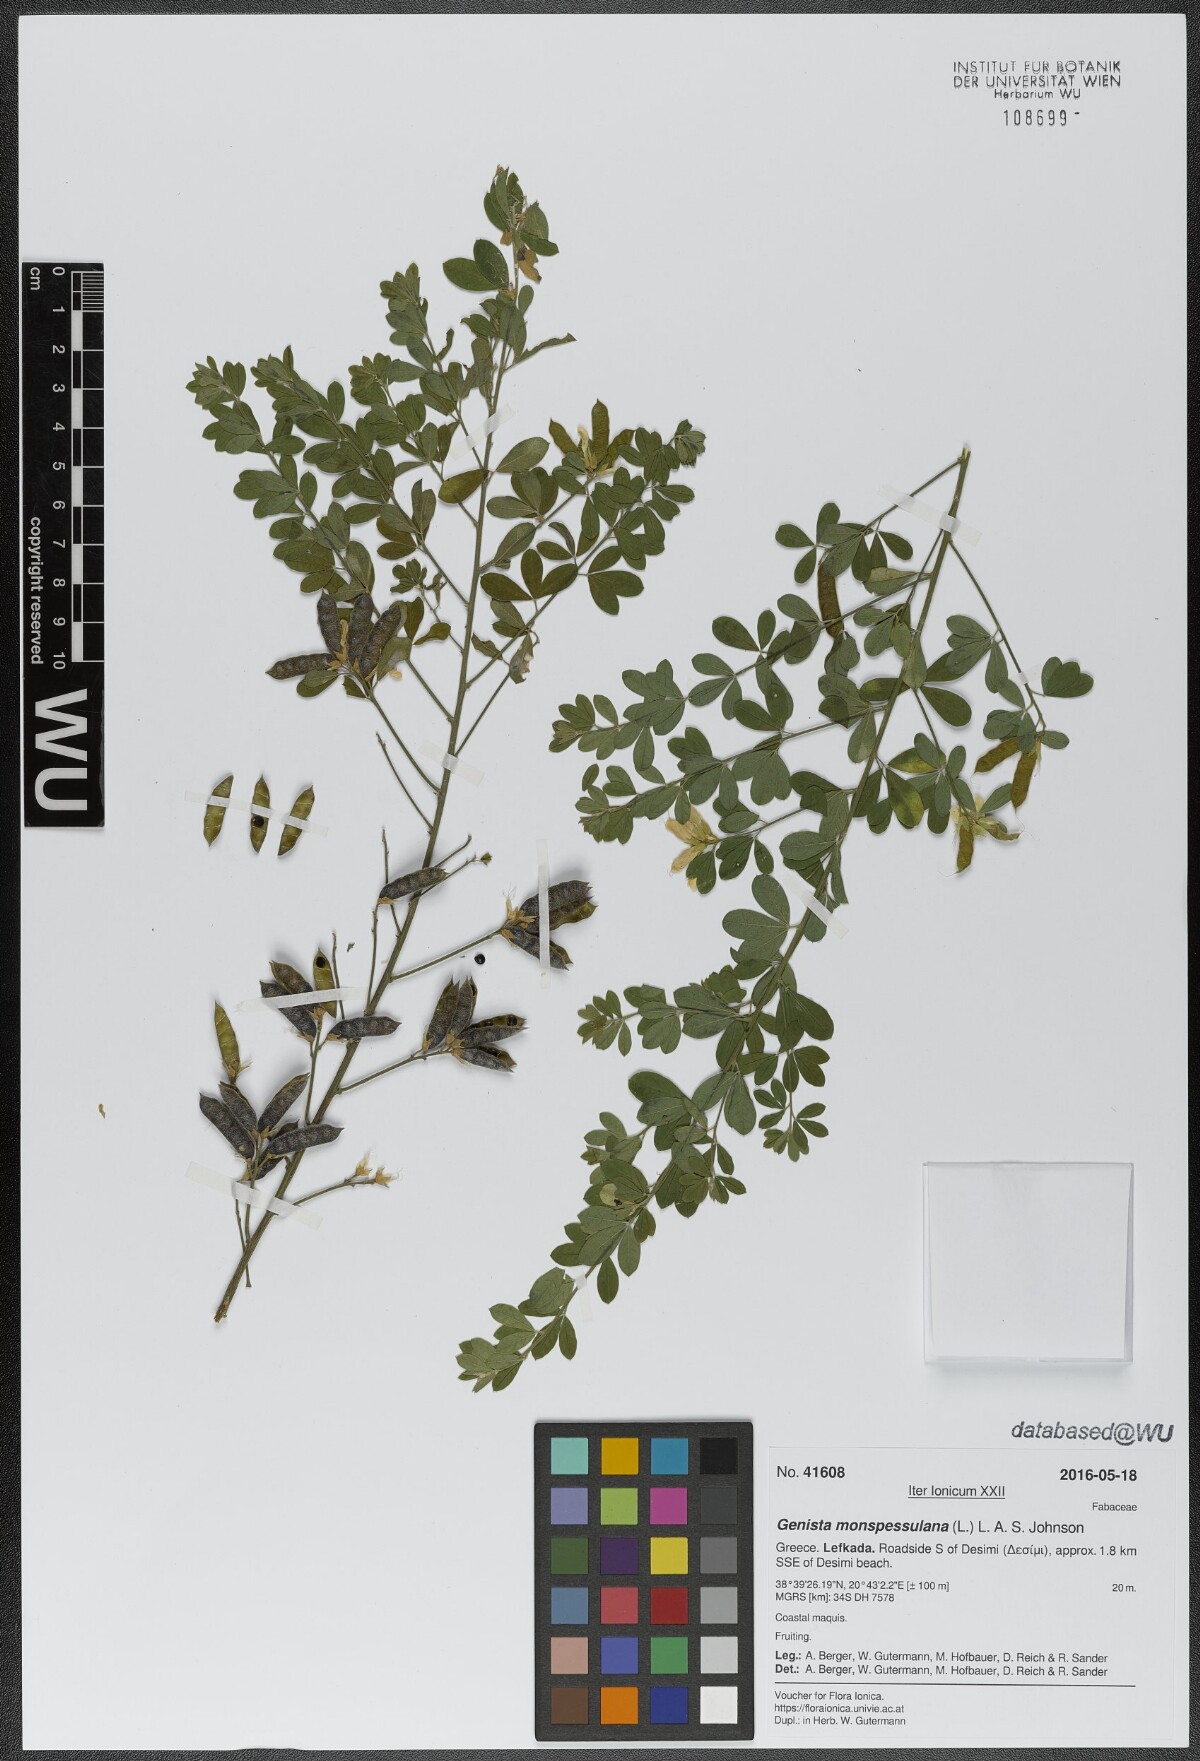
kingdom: Plantae
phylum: Tracheophyta
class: Magnoliopsida
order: Fabales
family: Fabaceae
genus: Genista
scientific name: Genista monspessulana
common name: Montpellier broom
